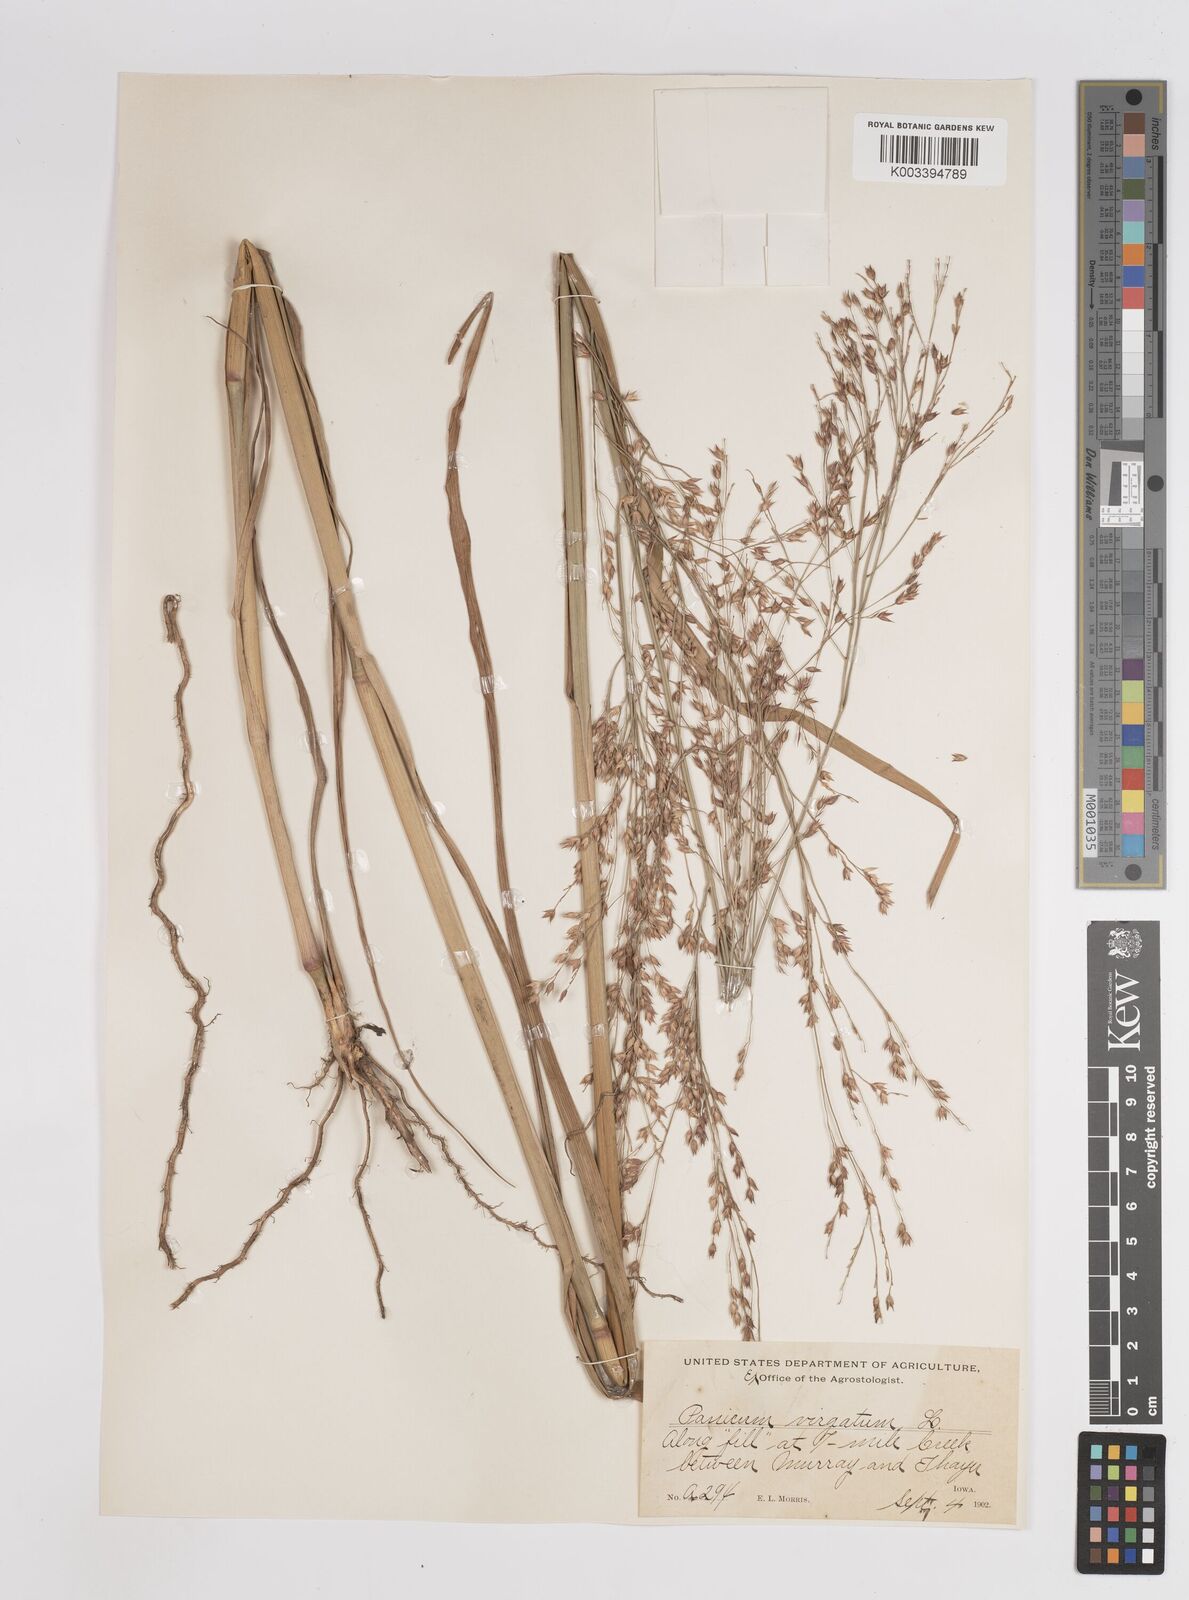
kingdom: Plantae
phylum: Tracheophyta
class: Liliopsida
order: Poales
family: Poaceae
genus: Panicum
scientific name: Panicum virgatum
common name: Switchgrass
